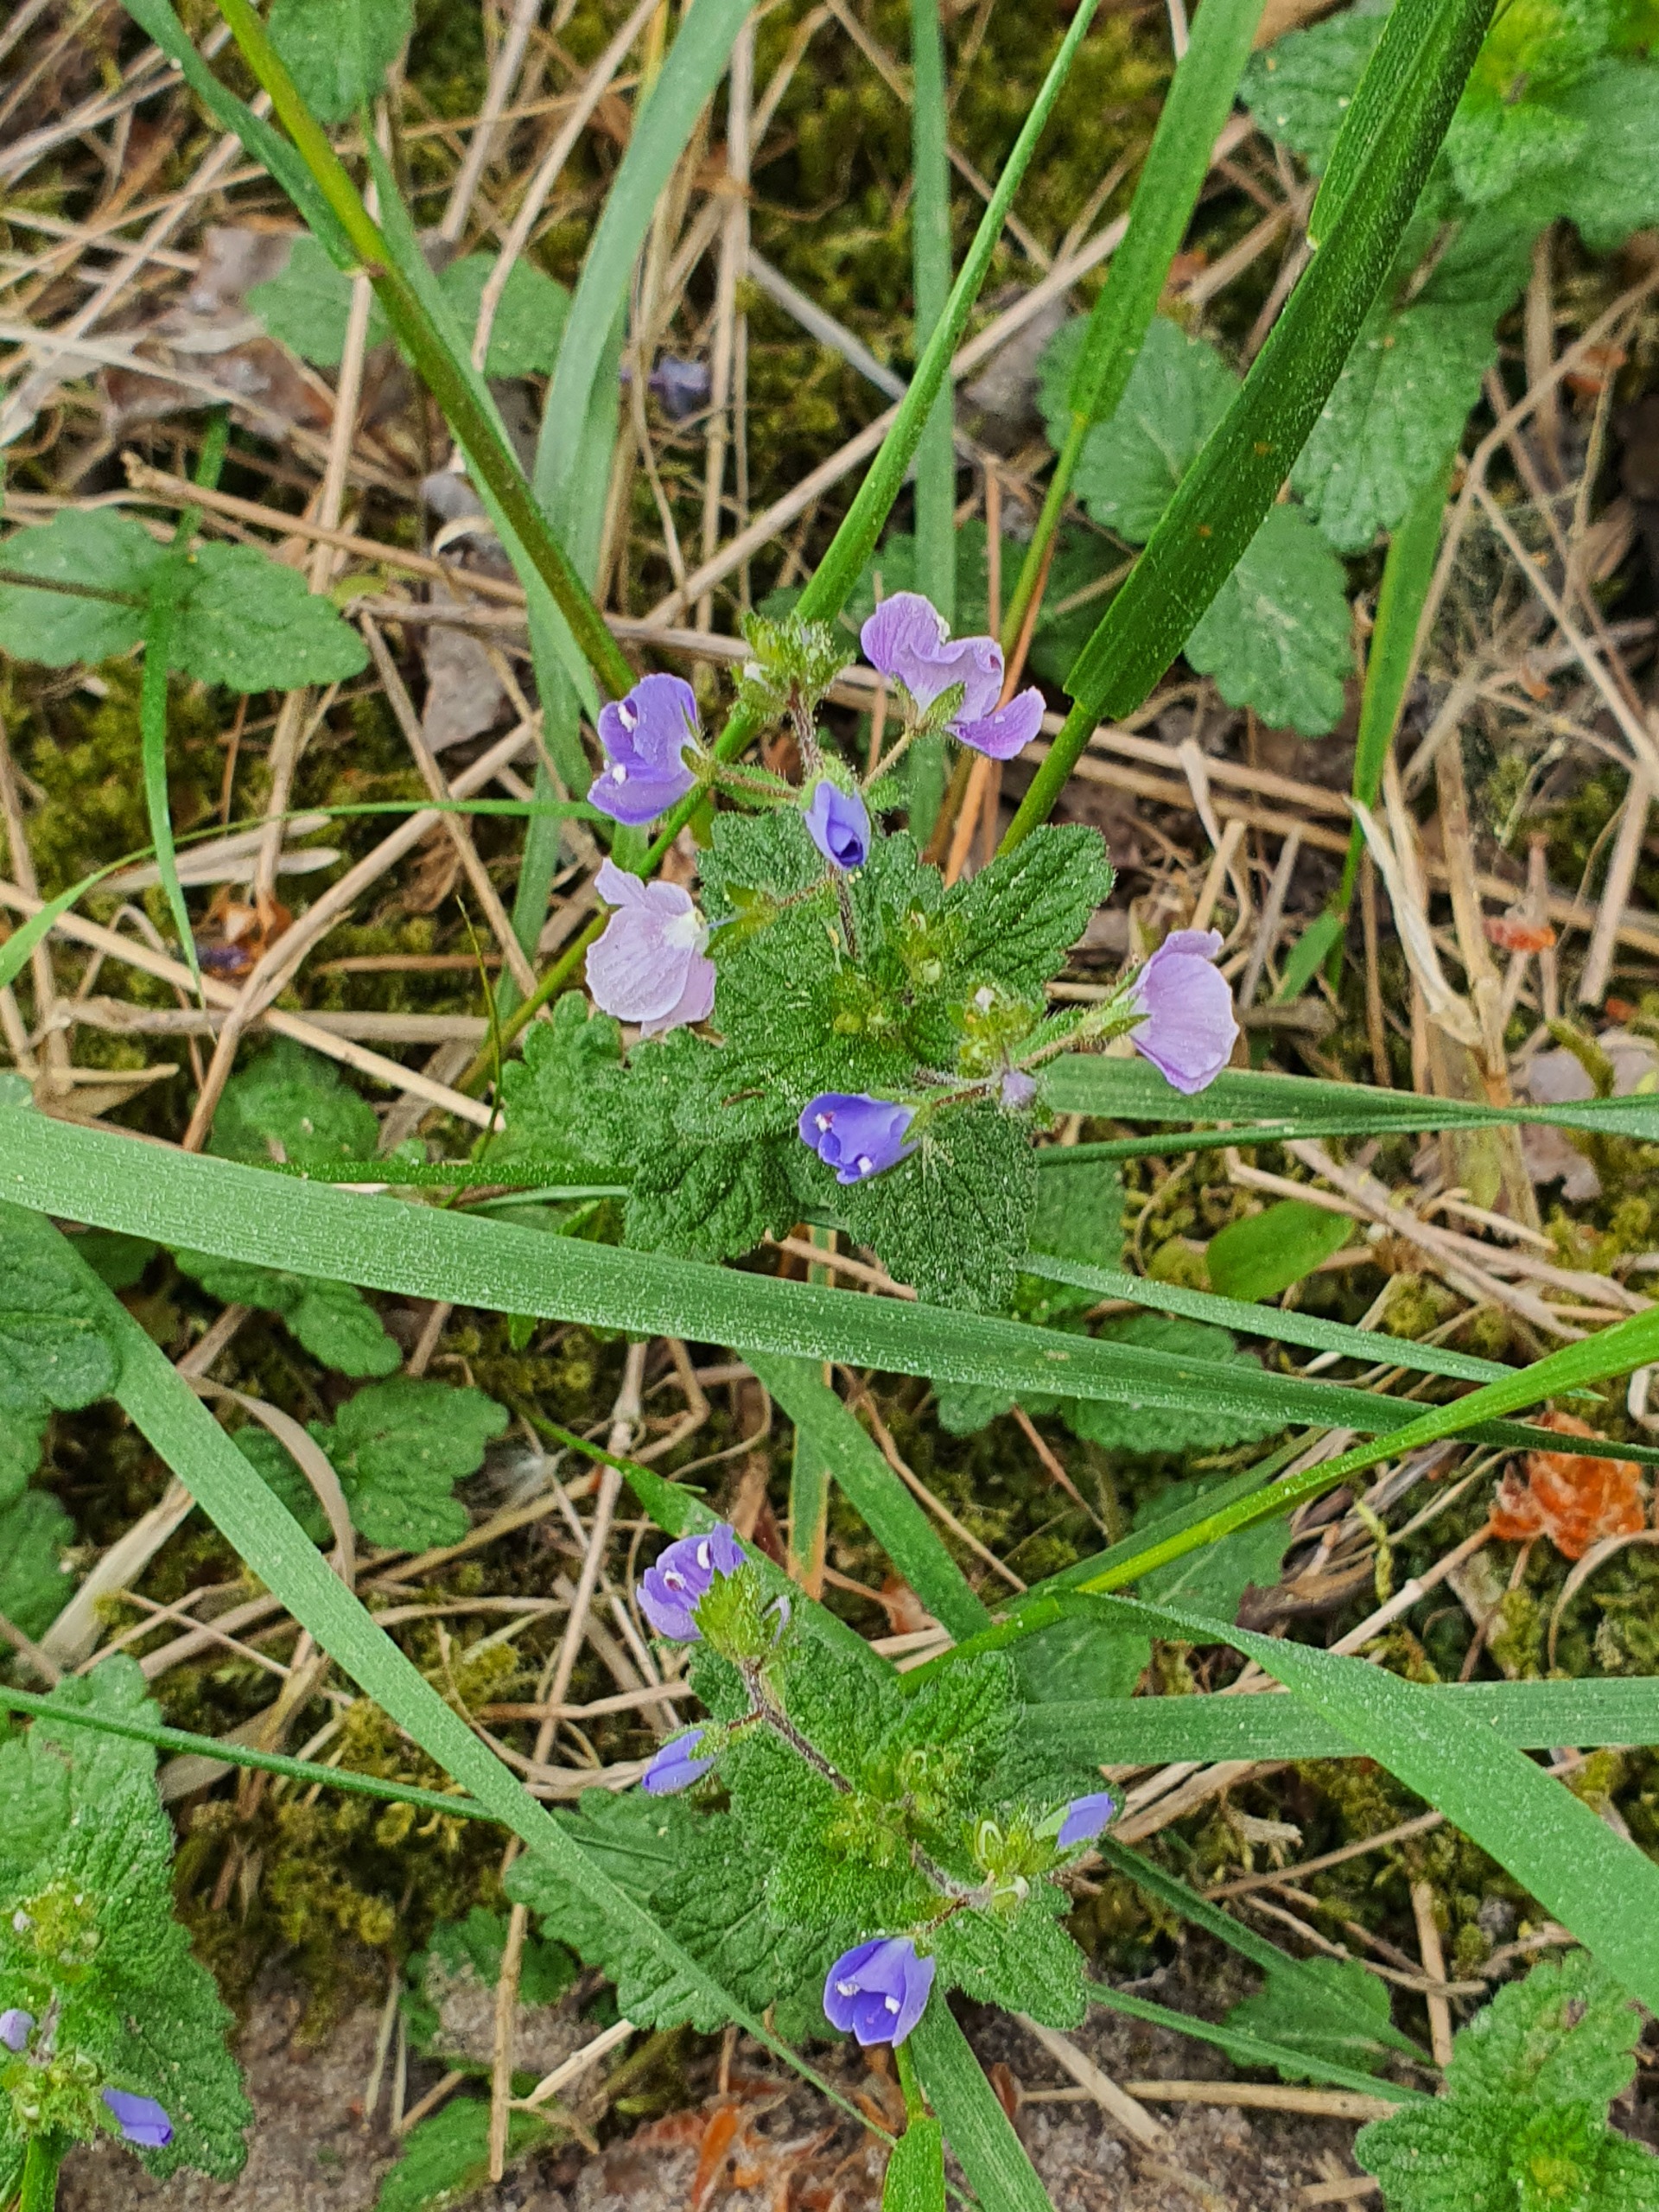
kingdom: Plantae
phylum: Tracheophyta
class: Magnoliopsida
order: Lamiales
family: Plantaginaceae
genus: Veronica
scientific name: Veronica chamaedrys
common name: Tveskægget ærenpris
